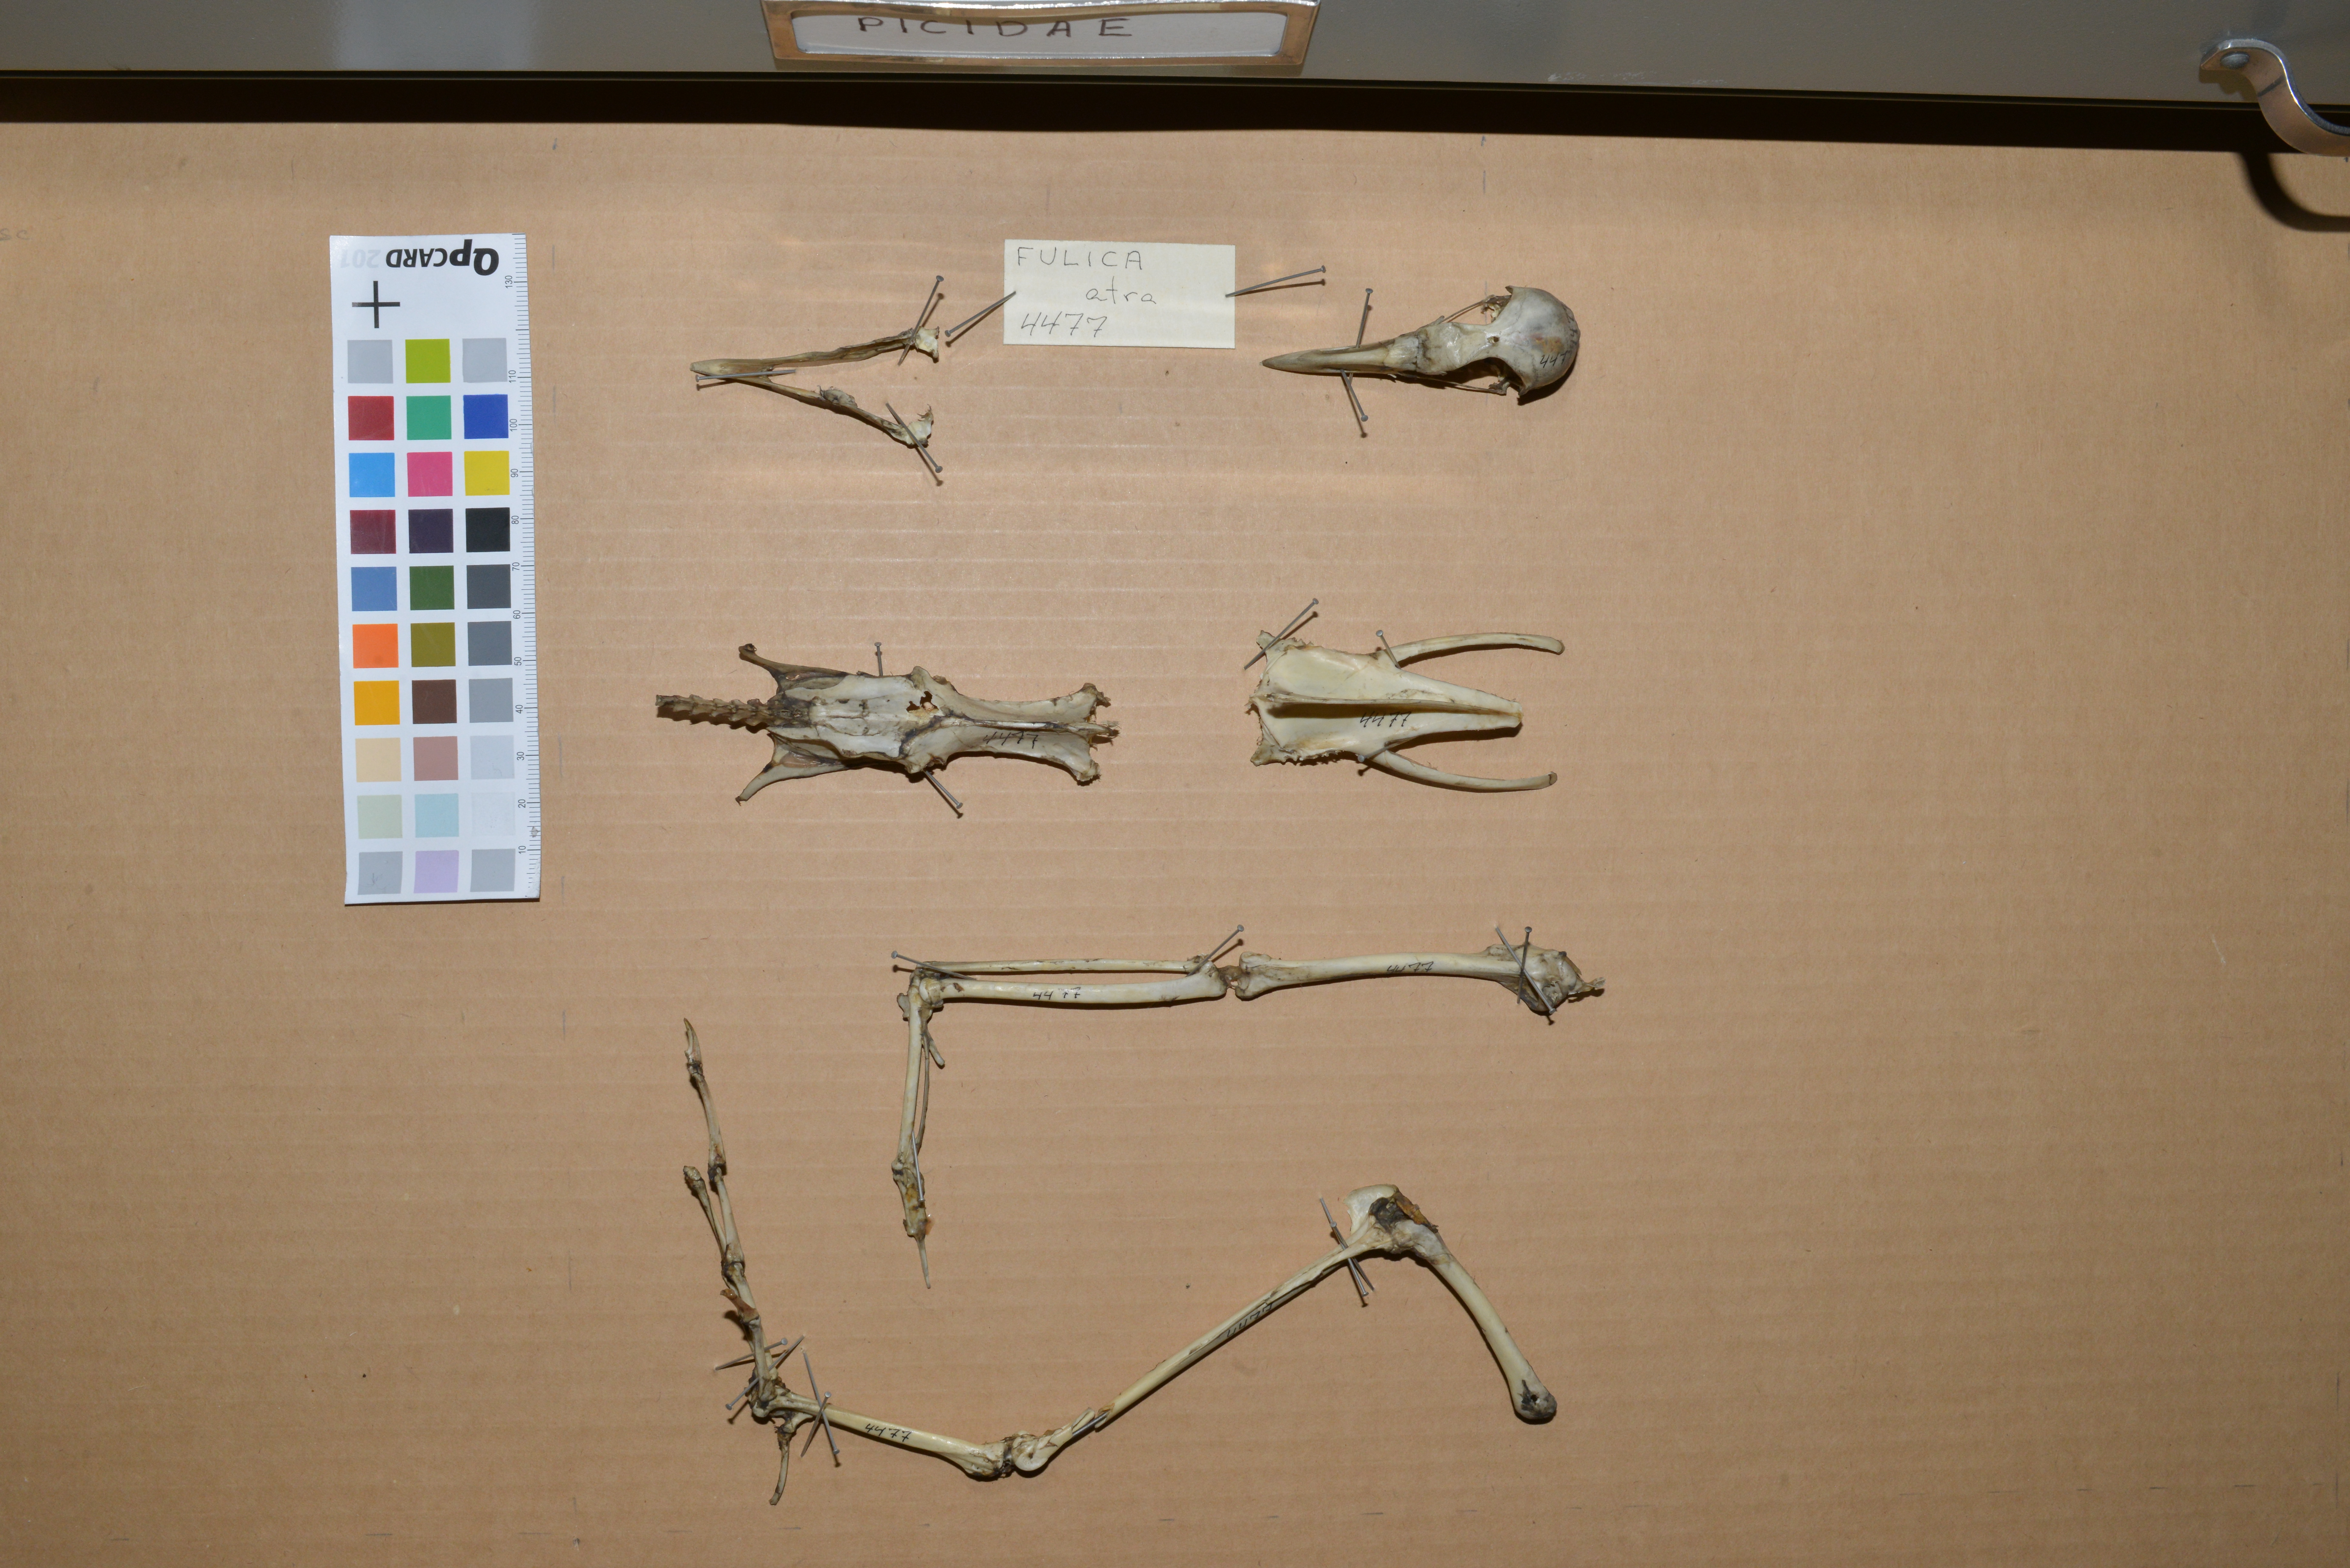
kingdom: Animalia
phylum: Chordata
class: Aves
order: Gruiformes
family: Rallidae
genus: Fulica
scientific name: Fulica atra
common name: Eurasian coot
